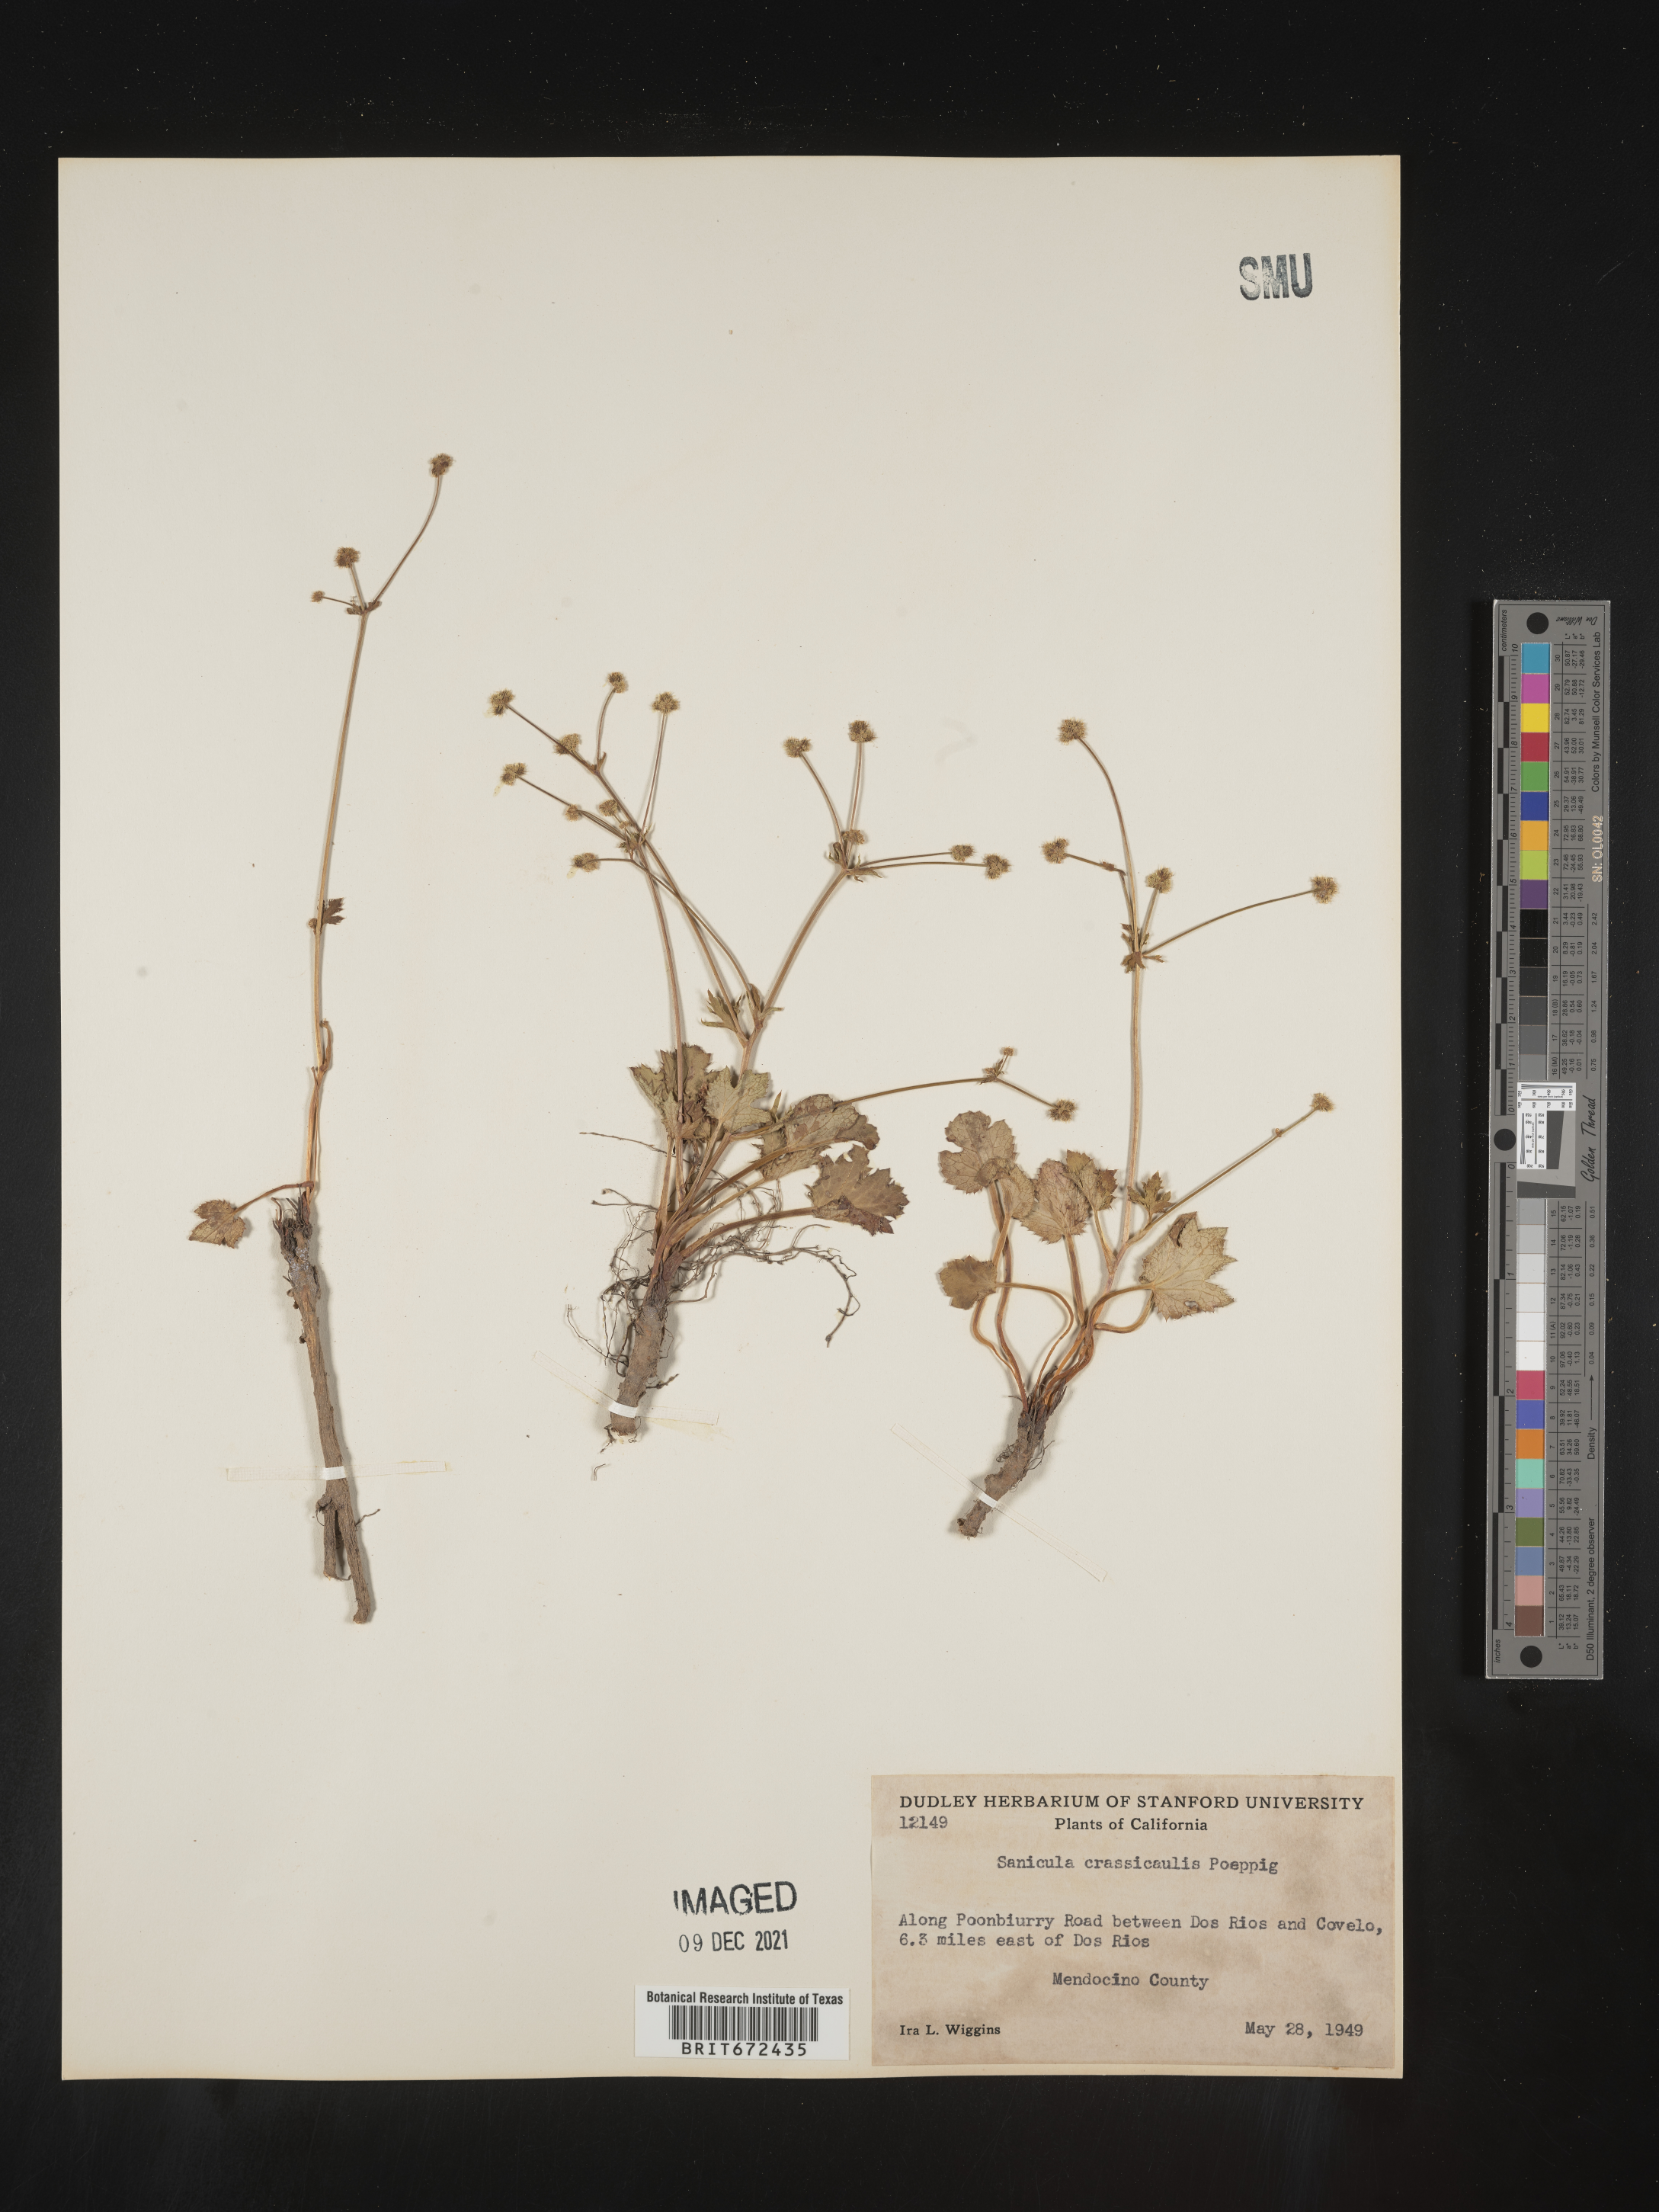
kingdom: Plantae
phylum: Tracheophyta
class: Magnoliopsida
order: Apiales
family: Apiaceae
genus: Sanicula
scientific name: Sanicula crassicaulis
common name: Western snakeroot
